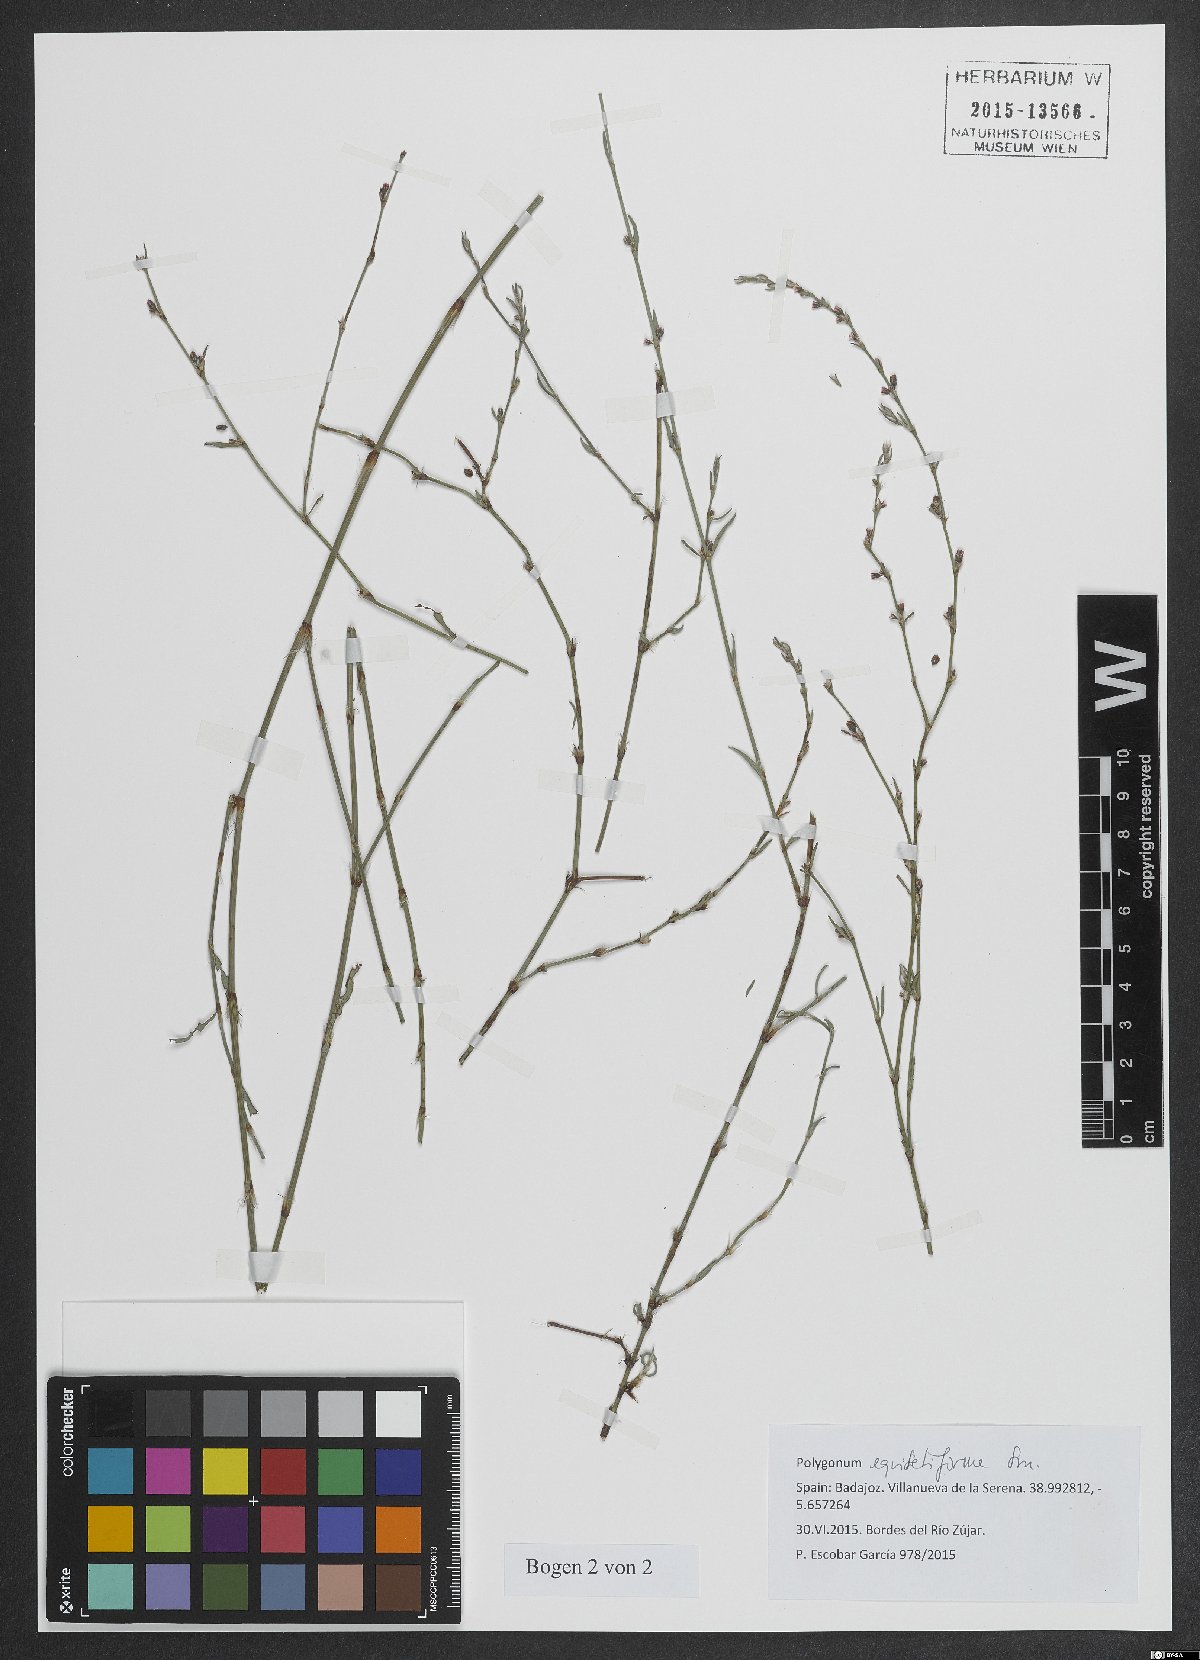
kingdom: Plantae
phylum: Tracheophyta
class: Magnoliopsida
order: Caryophyllales
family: Polygonaceae
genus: Polygonum
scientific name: Polygonum equisetiforme
